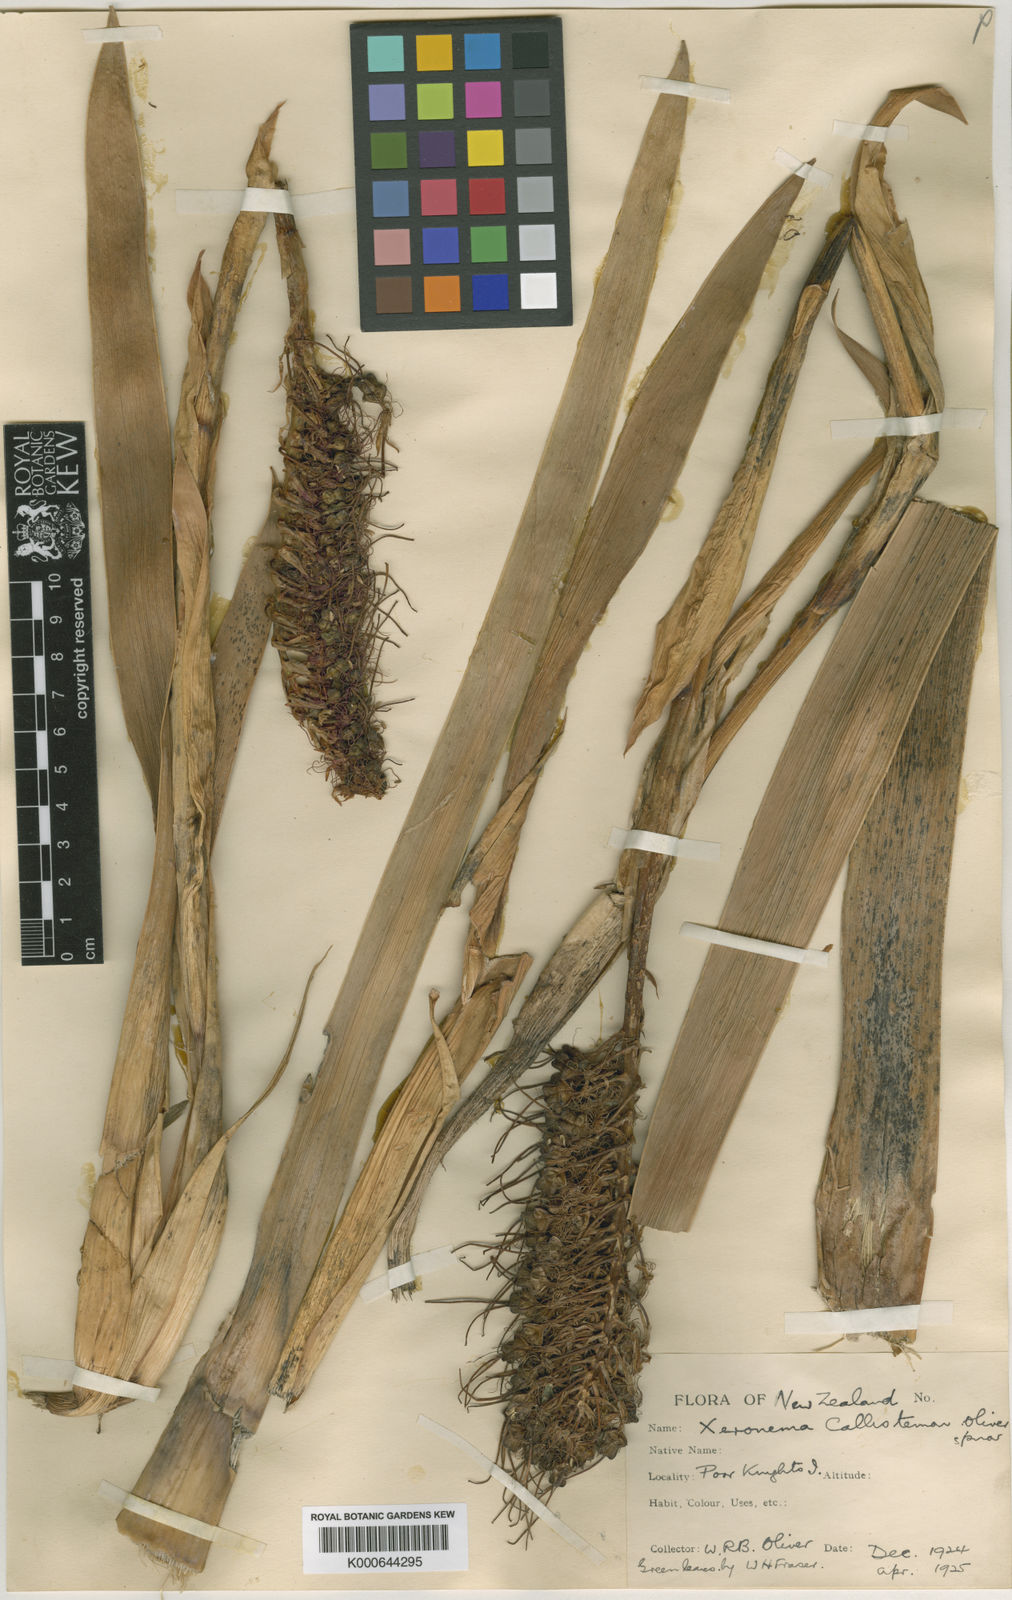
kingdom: Plantae
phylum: Tracheophyta
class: Liliopsida
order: Asparagales
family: Xeronemataceae
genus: Xeronema
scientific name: Xeronema callistemon
